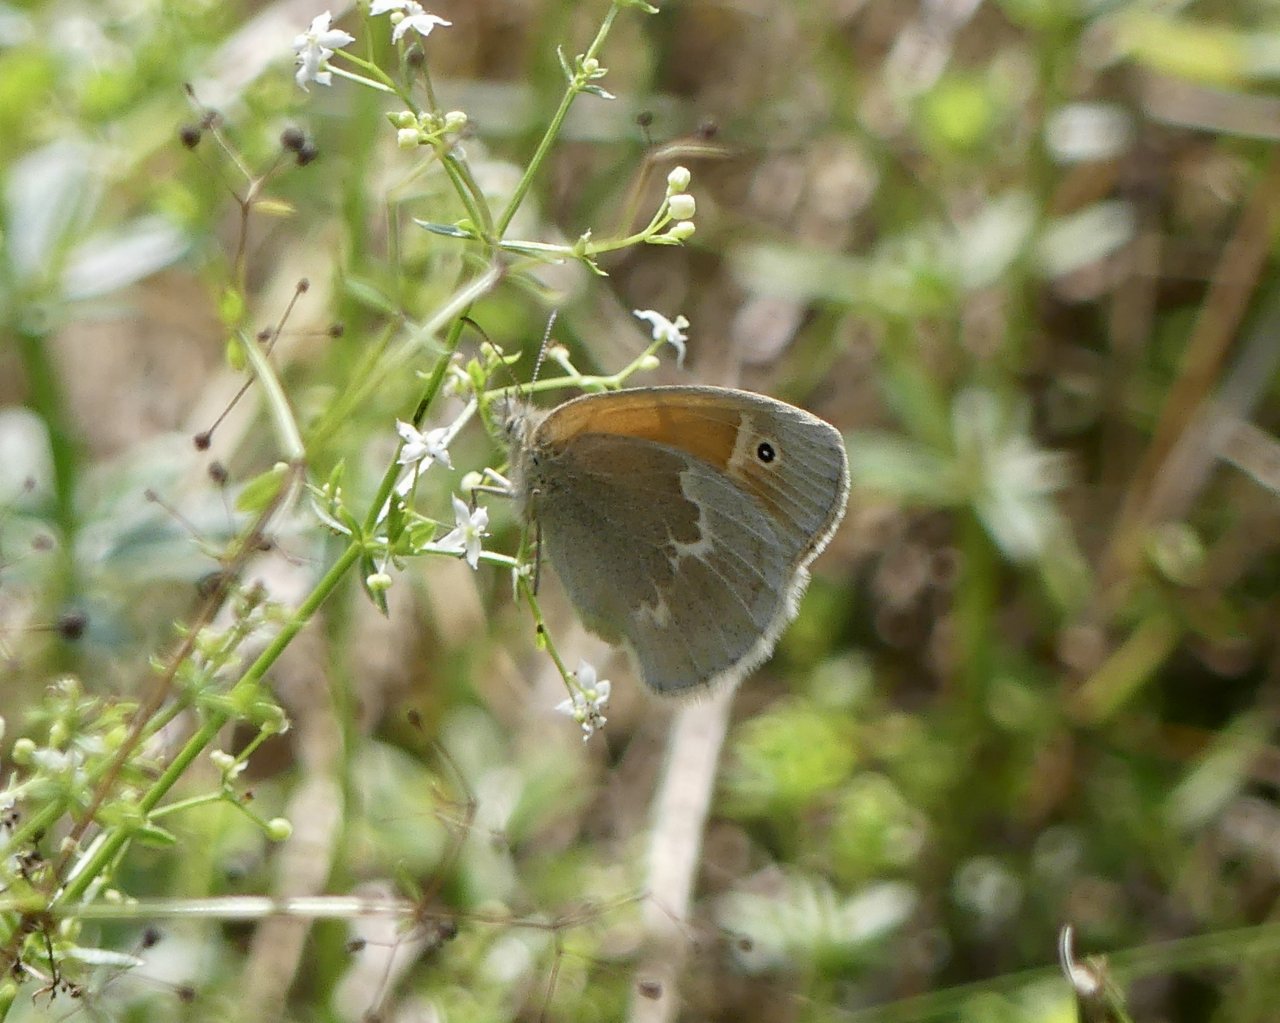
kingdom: Animalia
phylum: Arthropoda
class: Insecta
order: Lepidoptera
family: Nymphalidae
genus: Coenonympha
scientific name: Coenonympha tullia
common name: Large Heath
